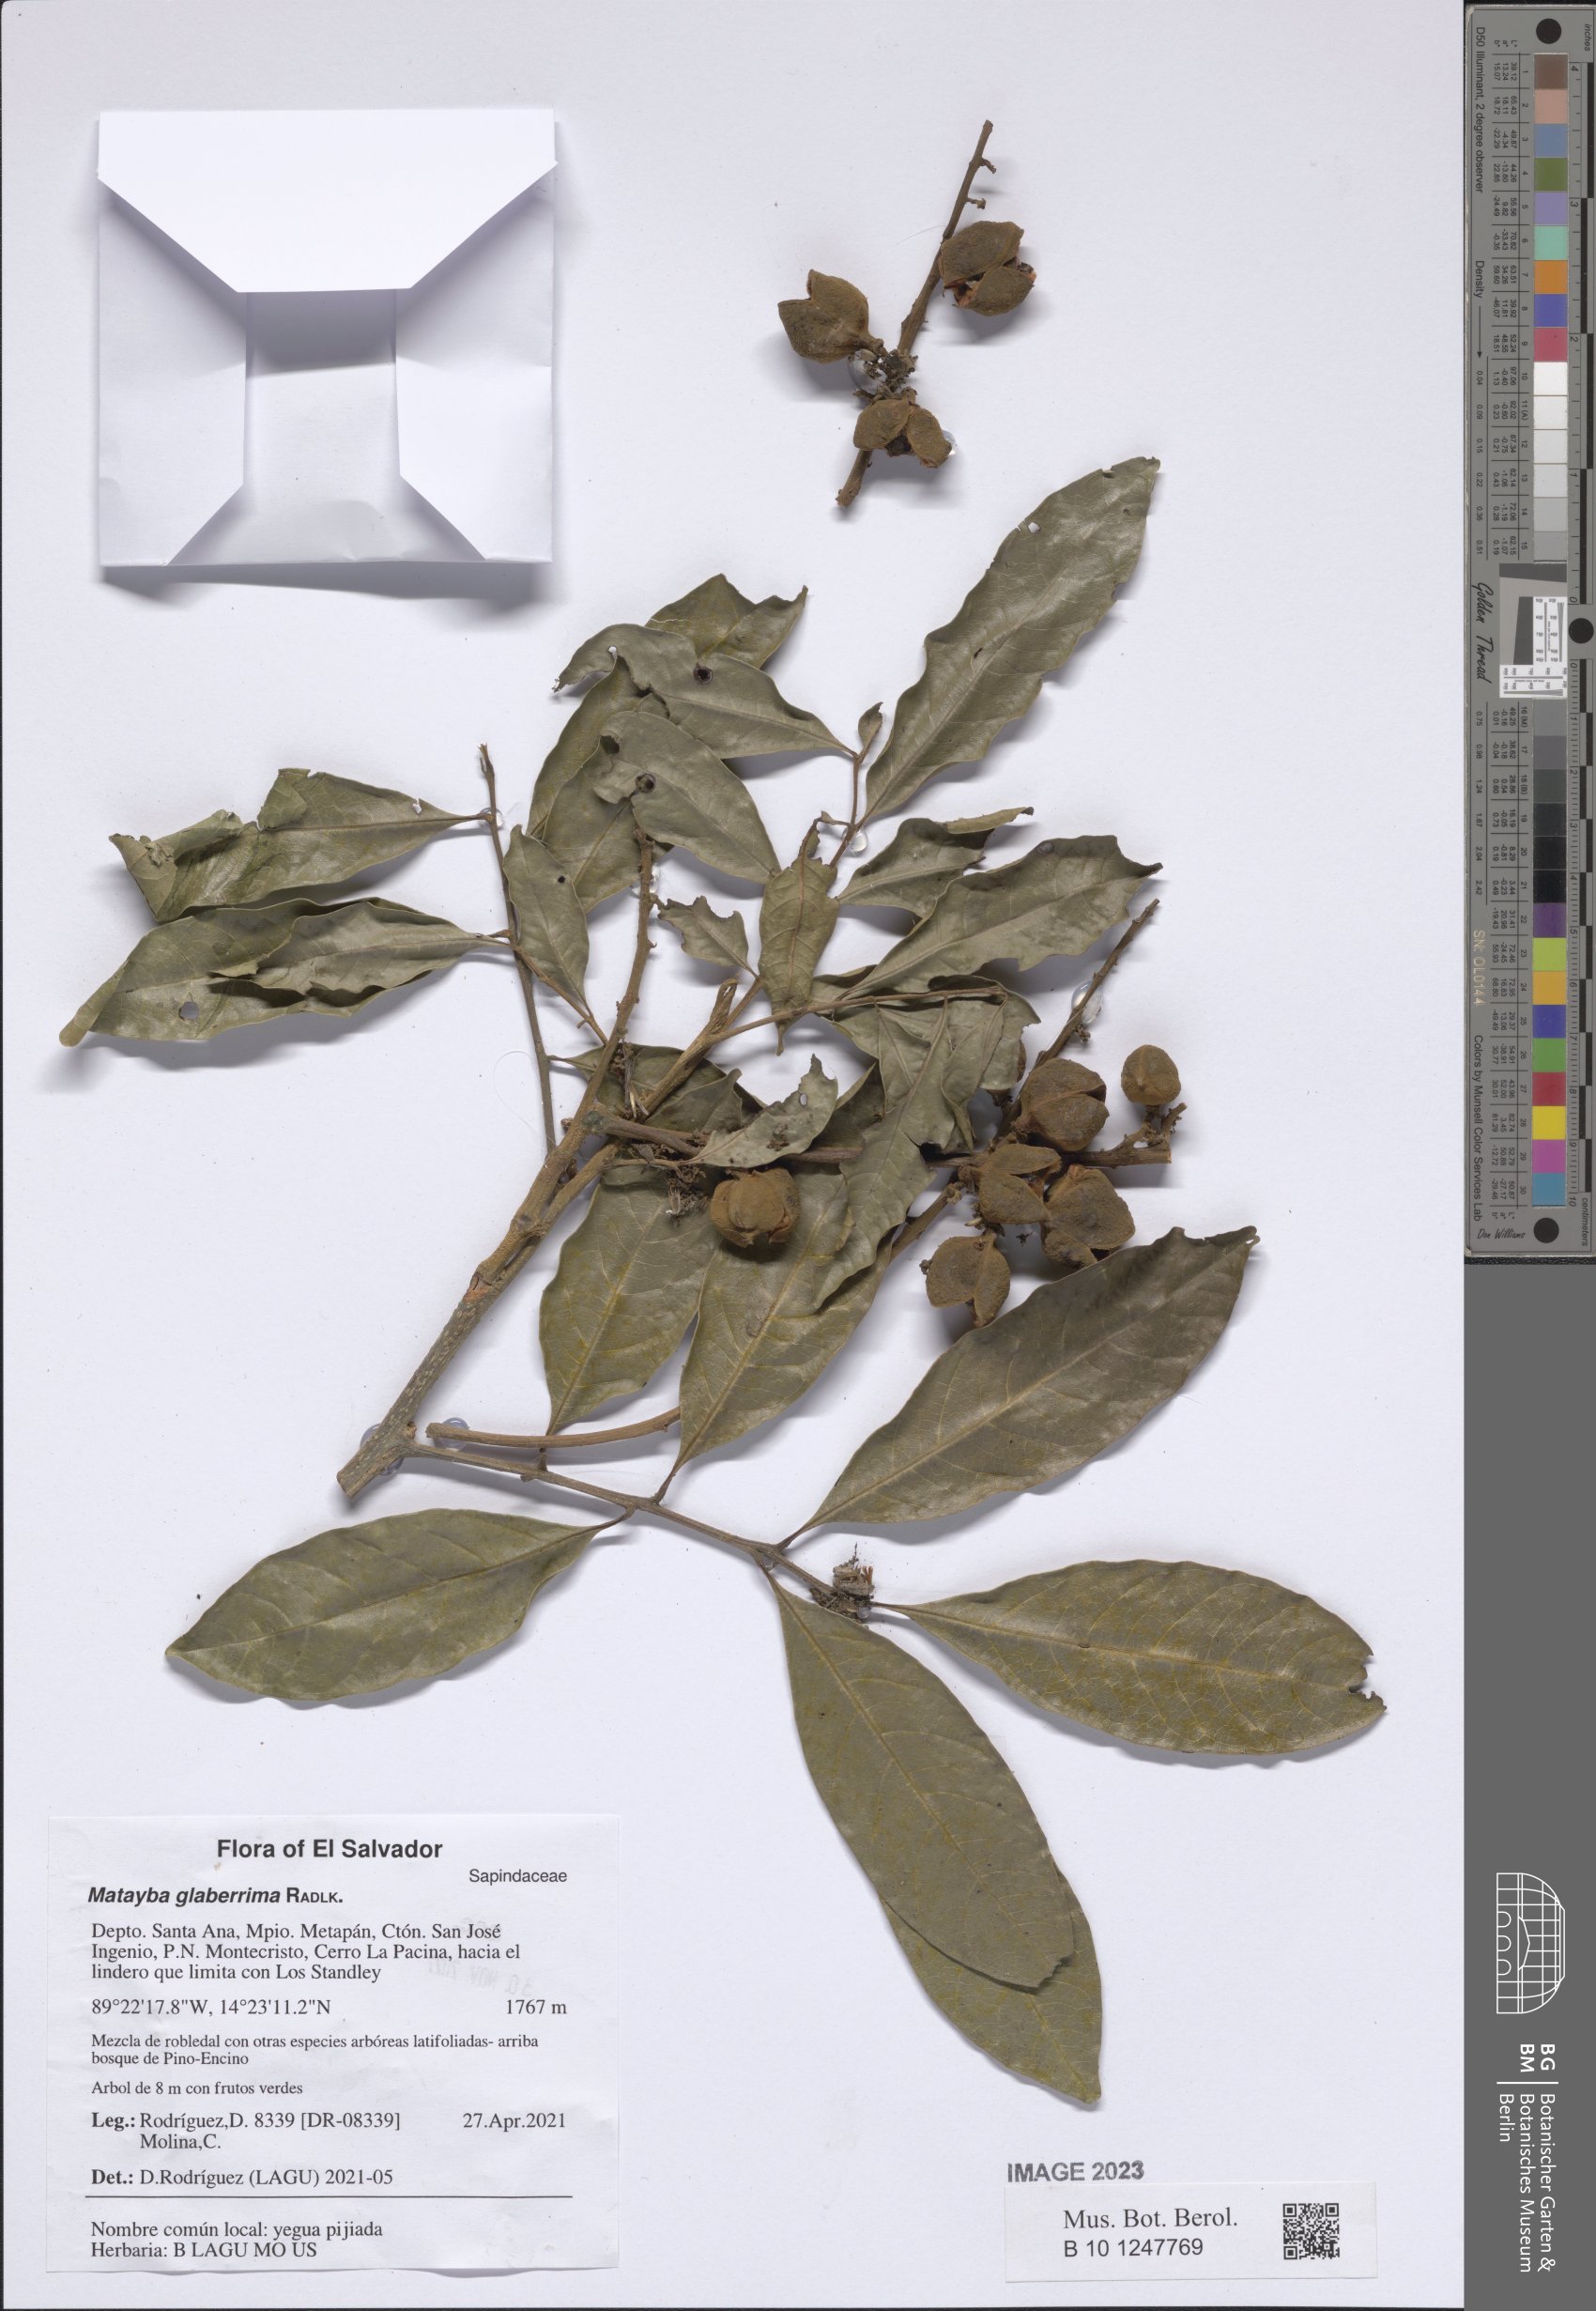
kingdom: Plantae
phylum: Tracheophyta
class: Magnoliopsida
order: Sapindales
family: Sapindaceae
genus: Matayba
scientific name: Matayba glaberrima
